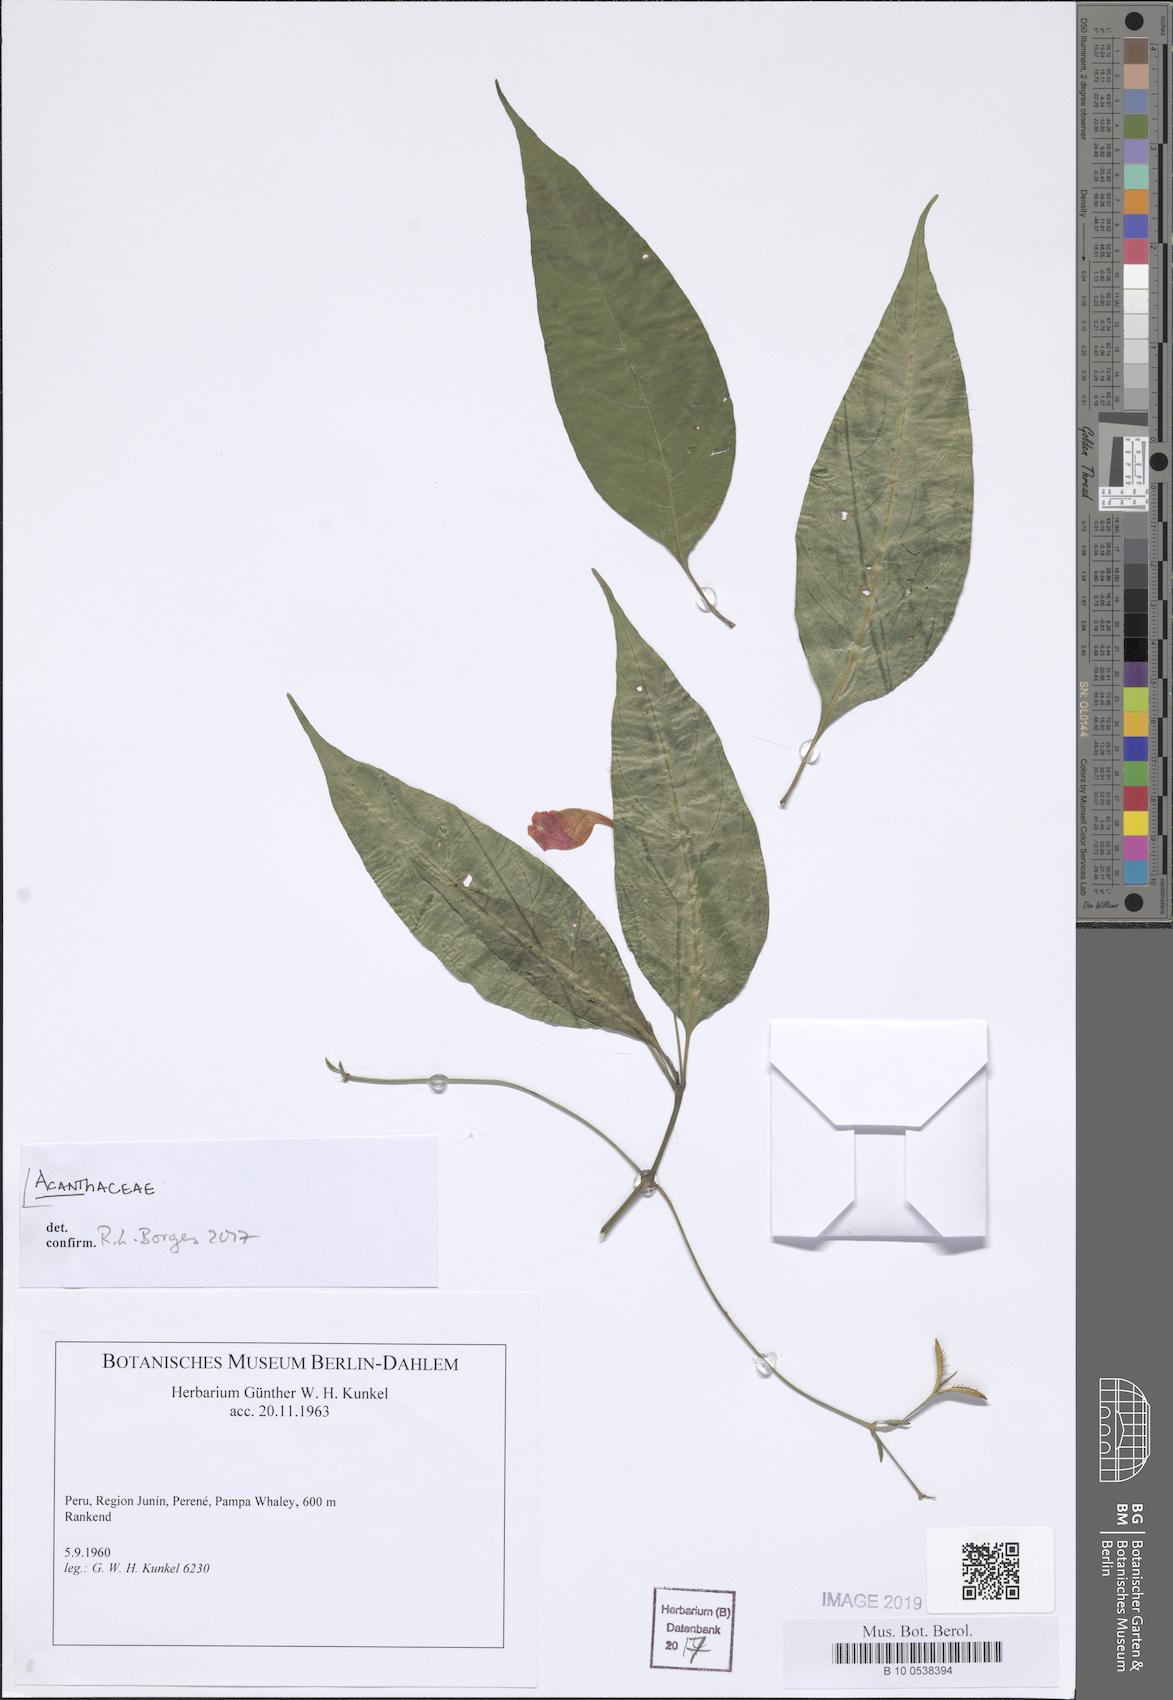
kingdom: Plantae
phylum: Tracheophyta
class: Magnoliopsida
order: Lamiales
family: Acanthaceae
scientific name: Acanthaceae
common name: Acanthaceae
